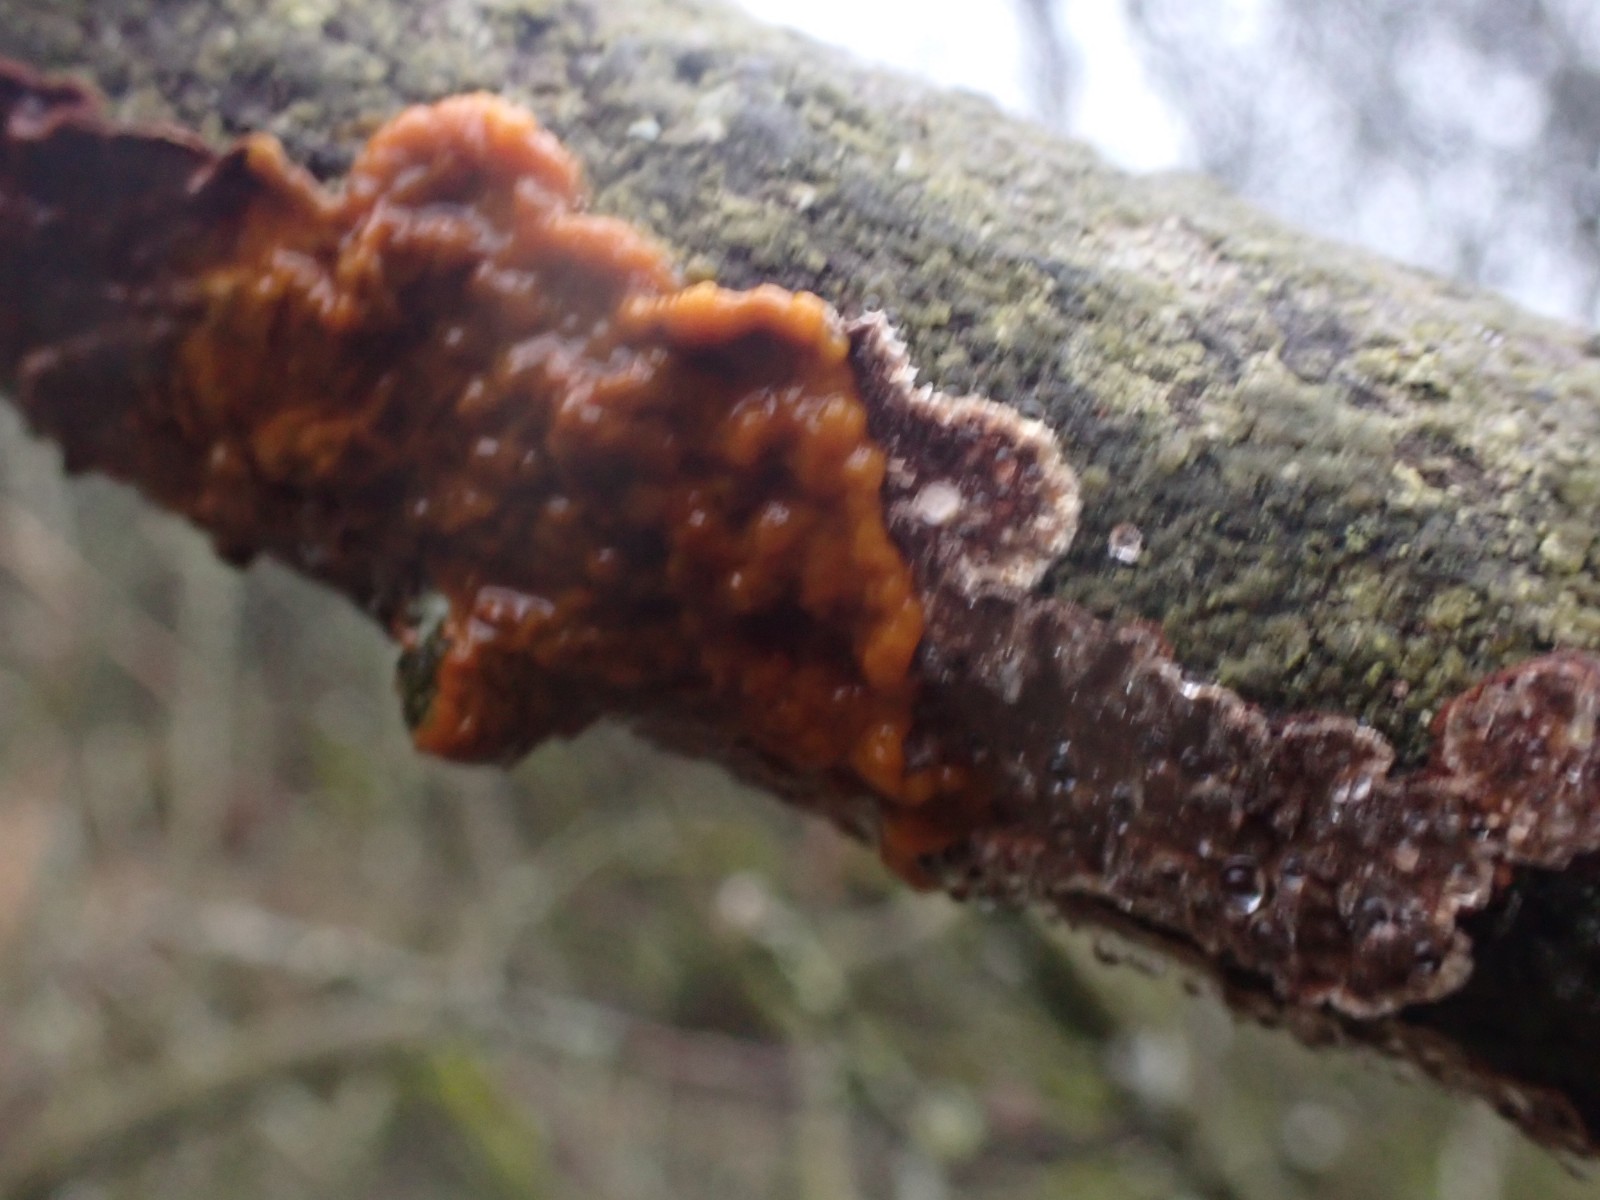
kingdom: Protozoa
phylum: Mycetozoa
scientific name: Mycetozoa
